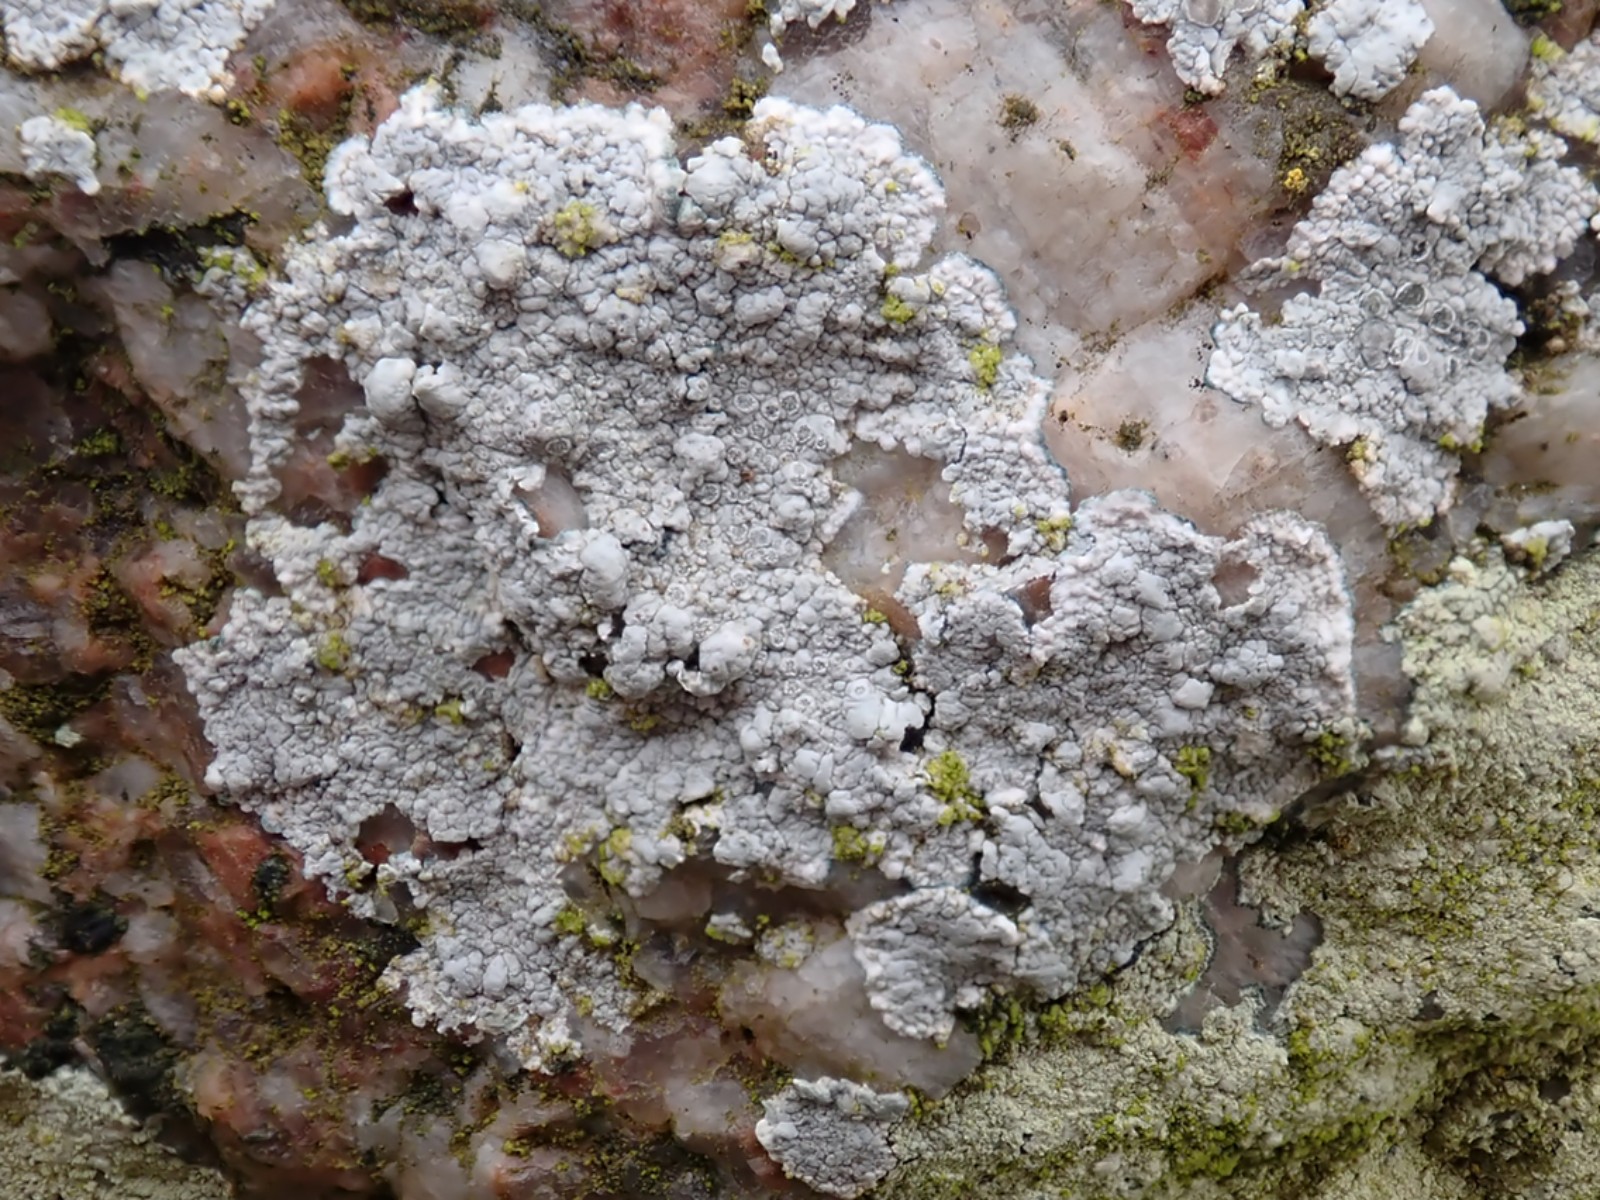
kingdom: Fungi
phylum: Ascomycota
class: Lecanoromycetes
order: Lecanorales
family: Lecanoraceae
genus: Glaucomaria
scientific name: Glaucomaria rupicola
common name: stengærde-kantskivelav
